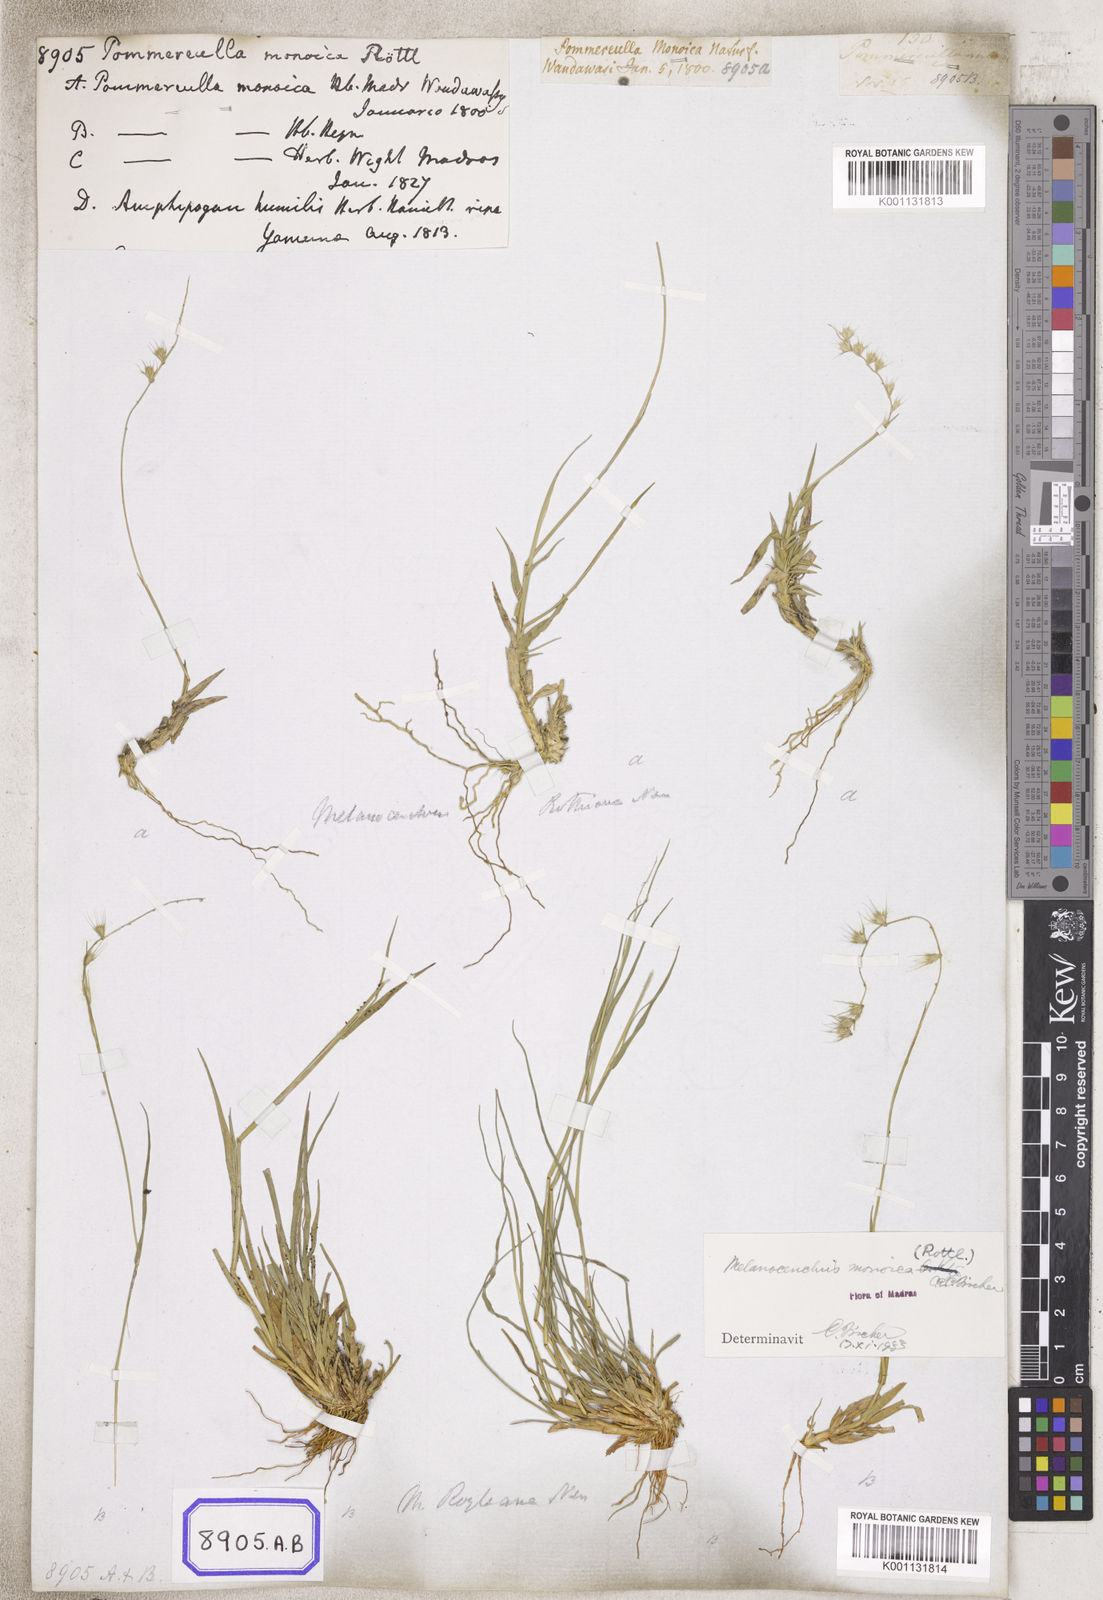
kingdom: Plantae
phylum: Tracheophyta
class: Liliopsida
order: Poales
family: Poaceae
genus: Melanocenchris
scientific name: Melanocenchris rothiana
